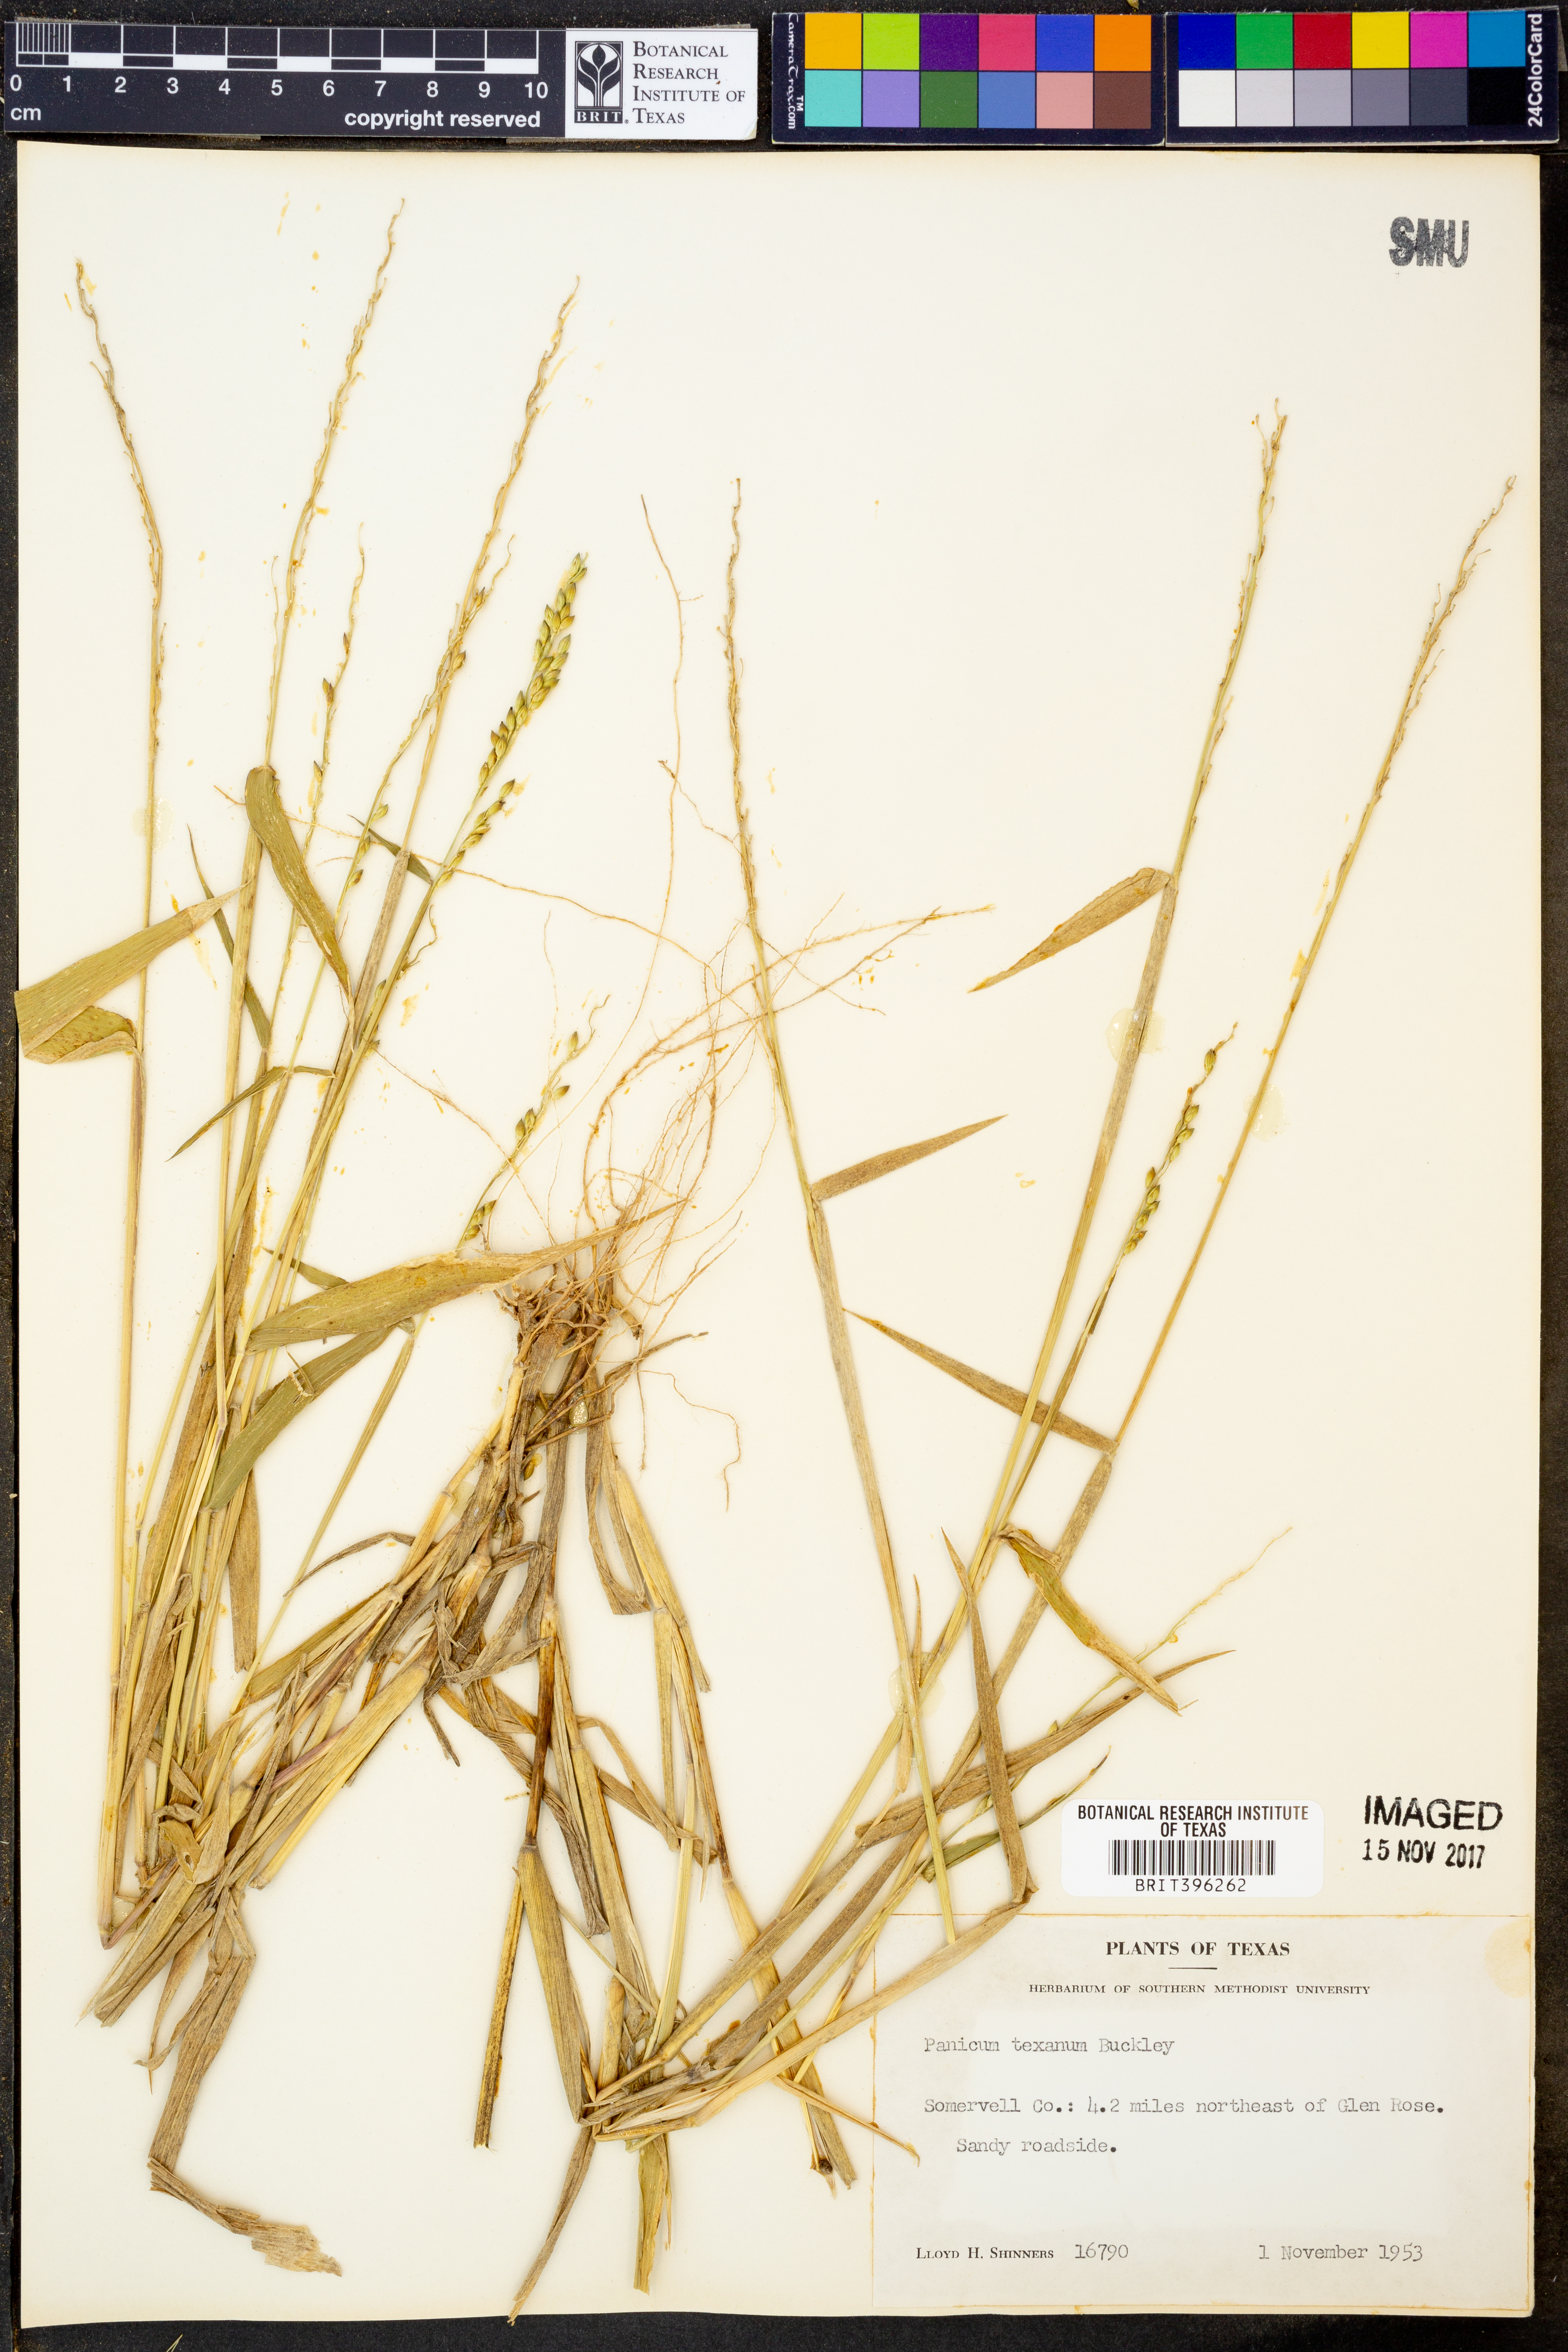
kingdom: Plantae
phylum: Tracheophyta
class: Liliopsida
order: Poales
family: Poaceae
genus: Urochloa
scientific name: Urochloa texana
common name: Texas millet
